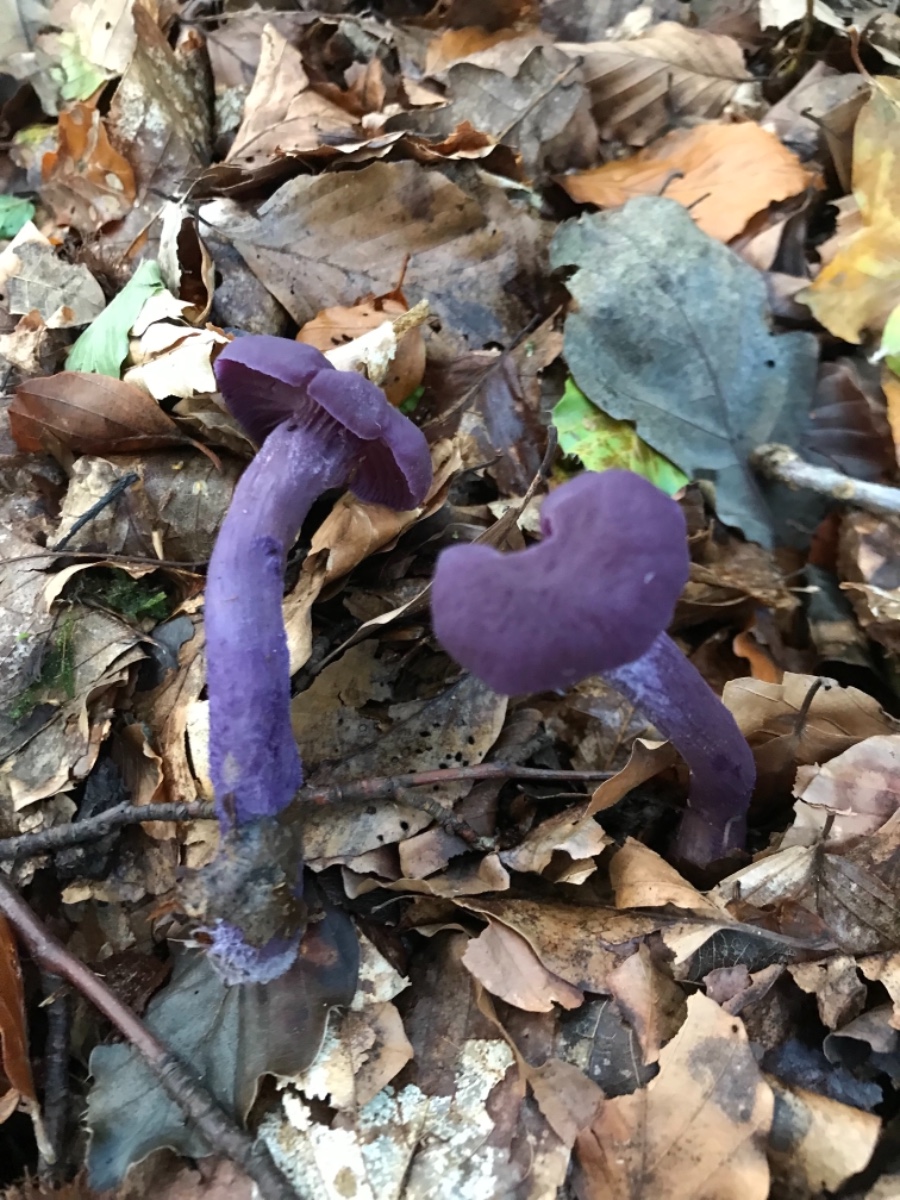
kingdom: Fungi
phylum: Basidiomycota
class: Agaricomycetes
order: Agaricales
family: Hydnangiaceae
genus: Laccaria
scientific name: Laccaria amethystina
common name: violet ametysthat
